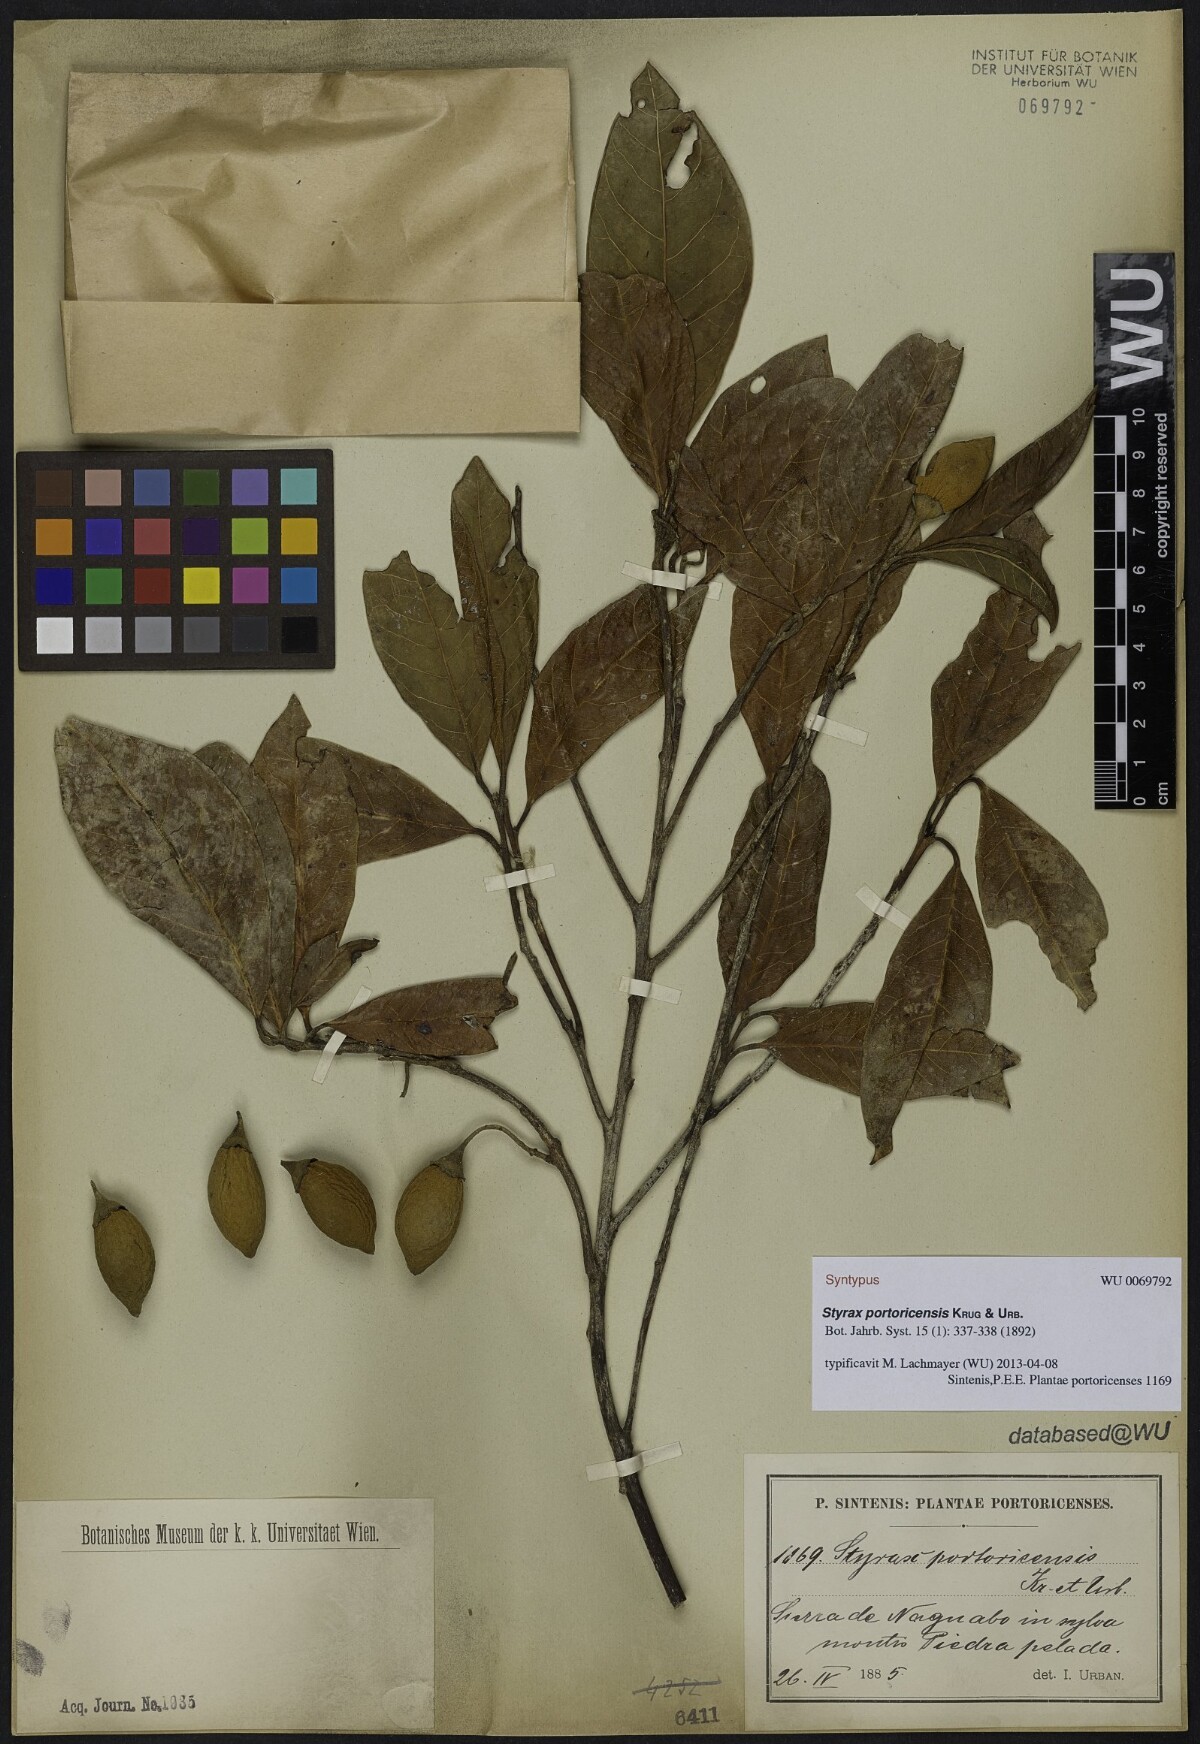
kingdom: Plantae
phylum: Tracheophyta
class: Magnoliopsida
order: Ericales
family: Styracaceae
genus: Styrax
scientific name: Styrax portoricensis
